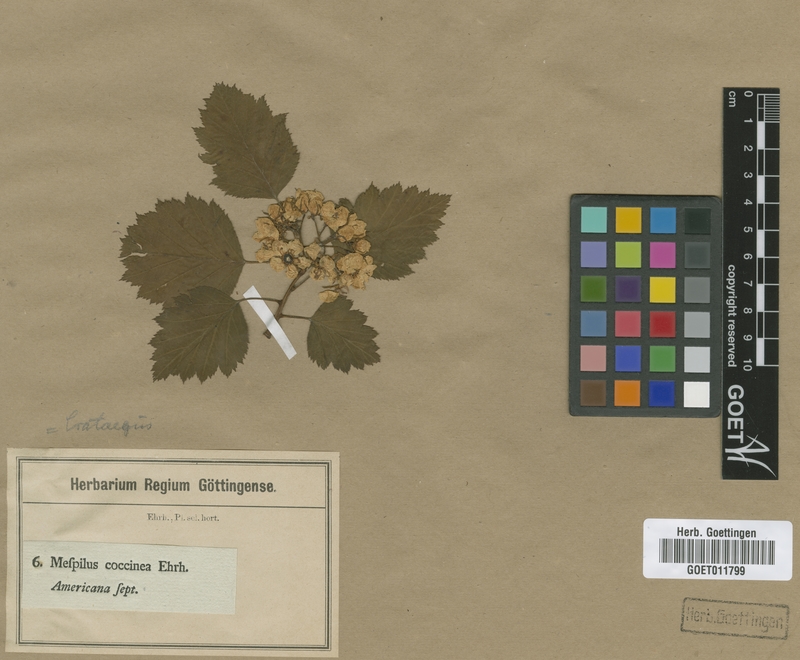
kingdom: Plantae
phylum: Tracheophyta
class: Magnoliopsida
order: Rosales
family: Rosaceae
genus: Crataegus
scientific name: Crataegus coccinea
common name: Scarlet hawthorn
